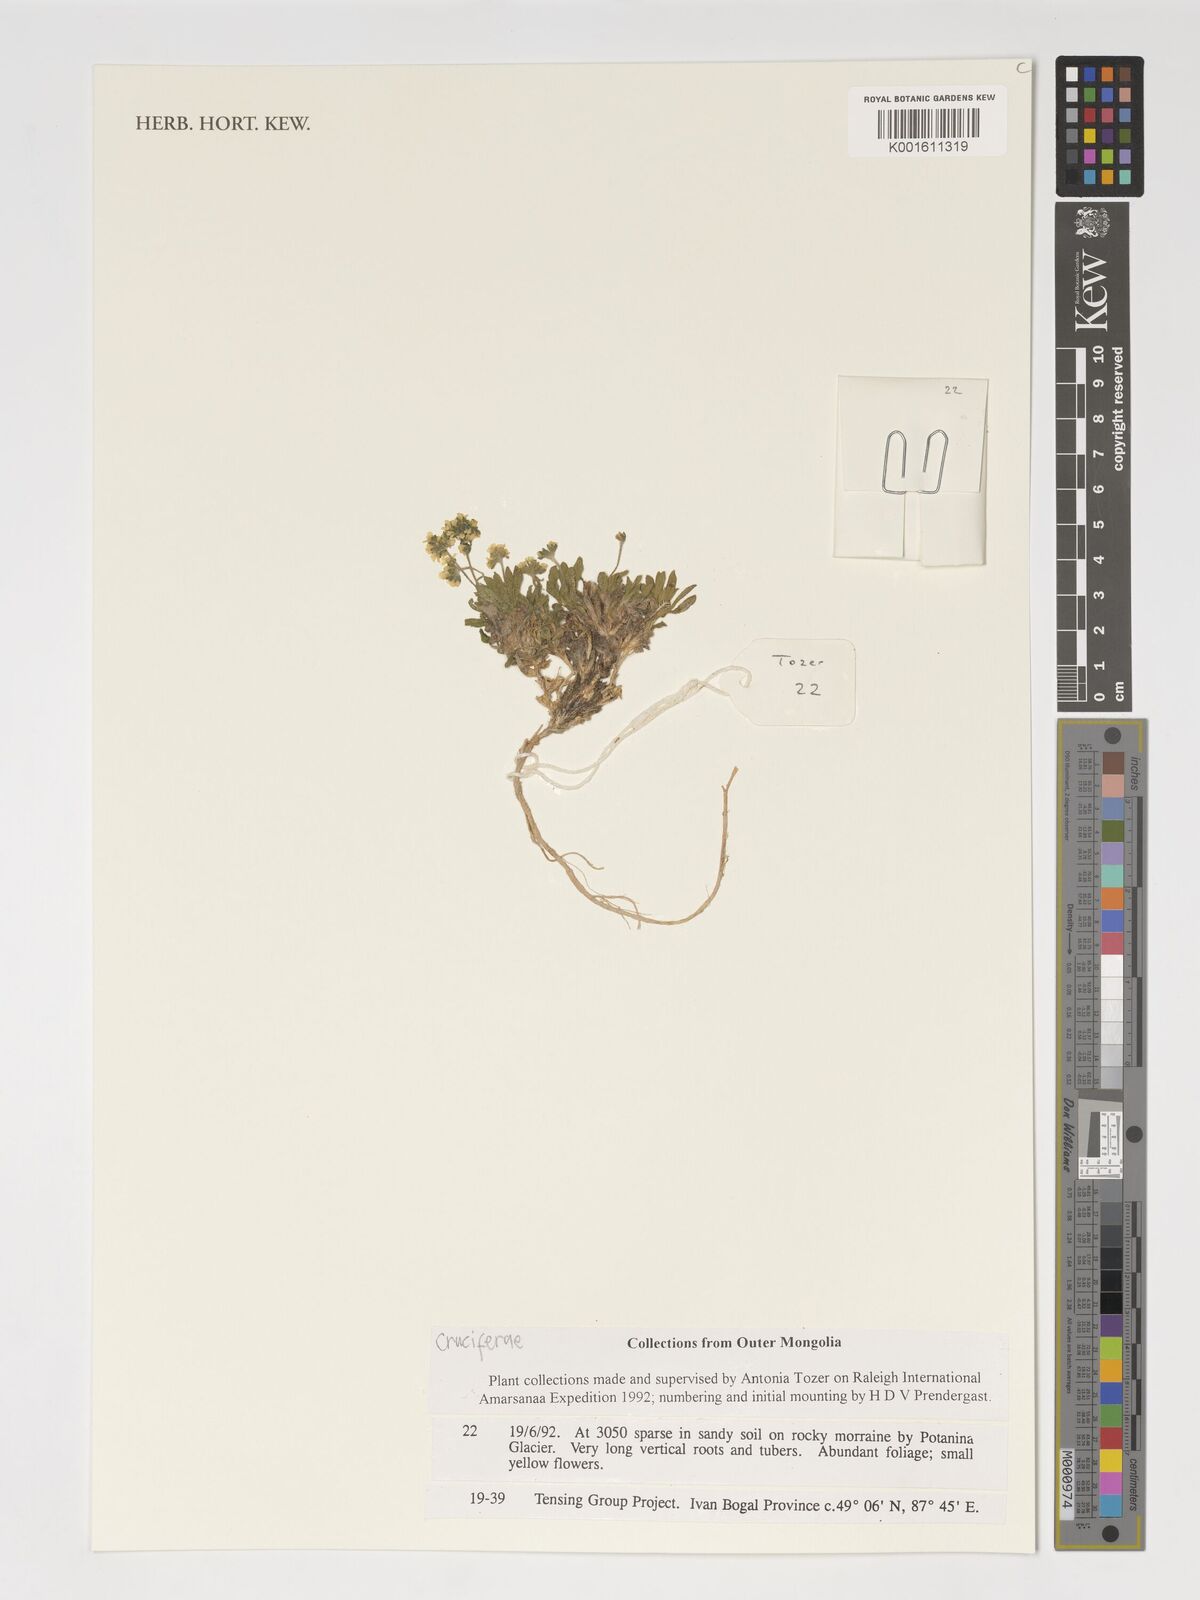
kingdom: Plantae
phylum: Tracheophyta
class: Magnoliopsida
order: Brassicales
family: Brassicaceae
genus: Brassica
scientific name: Brassica
